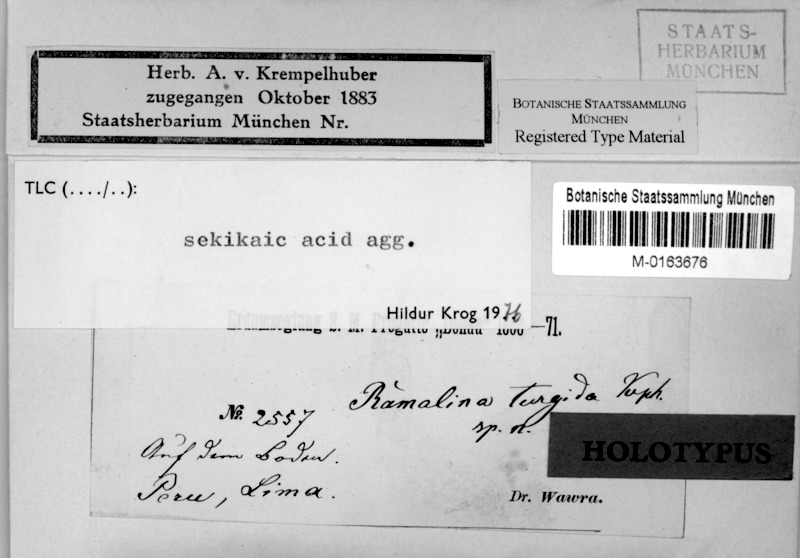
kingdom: Fungi
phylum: Ascomycota
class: Lecanoromycetes
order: Lecanorales
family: Ramalinaceae
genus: Ramalina
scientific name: Ramalina turgida
